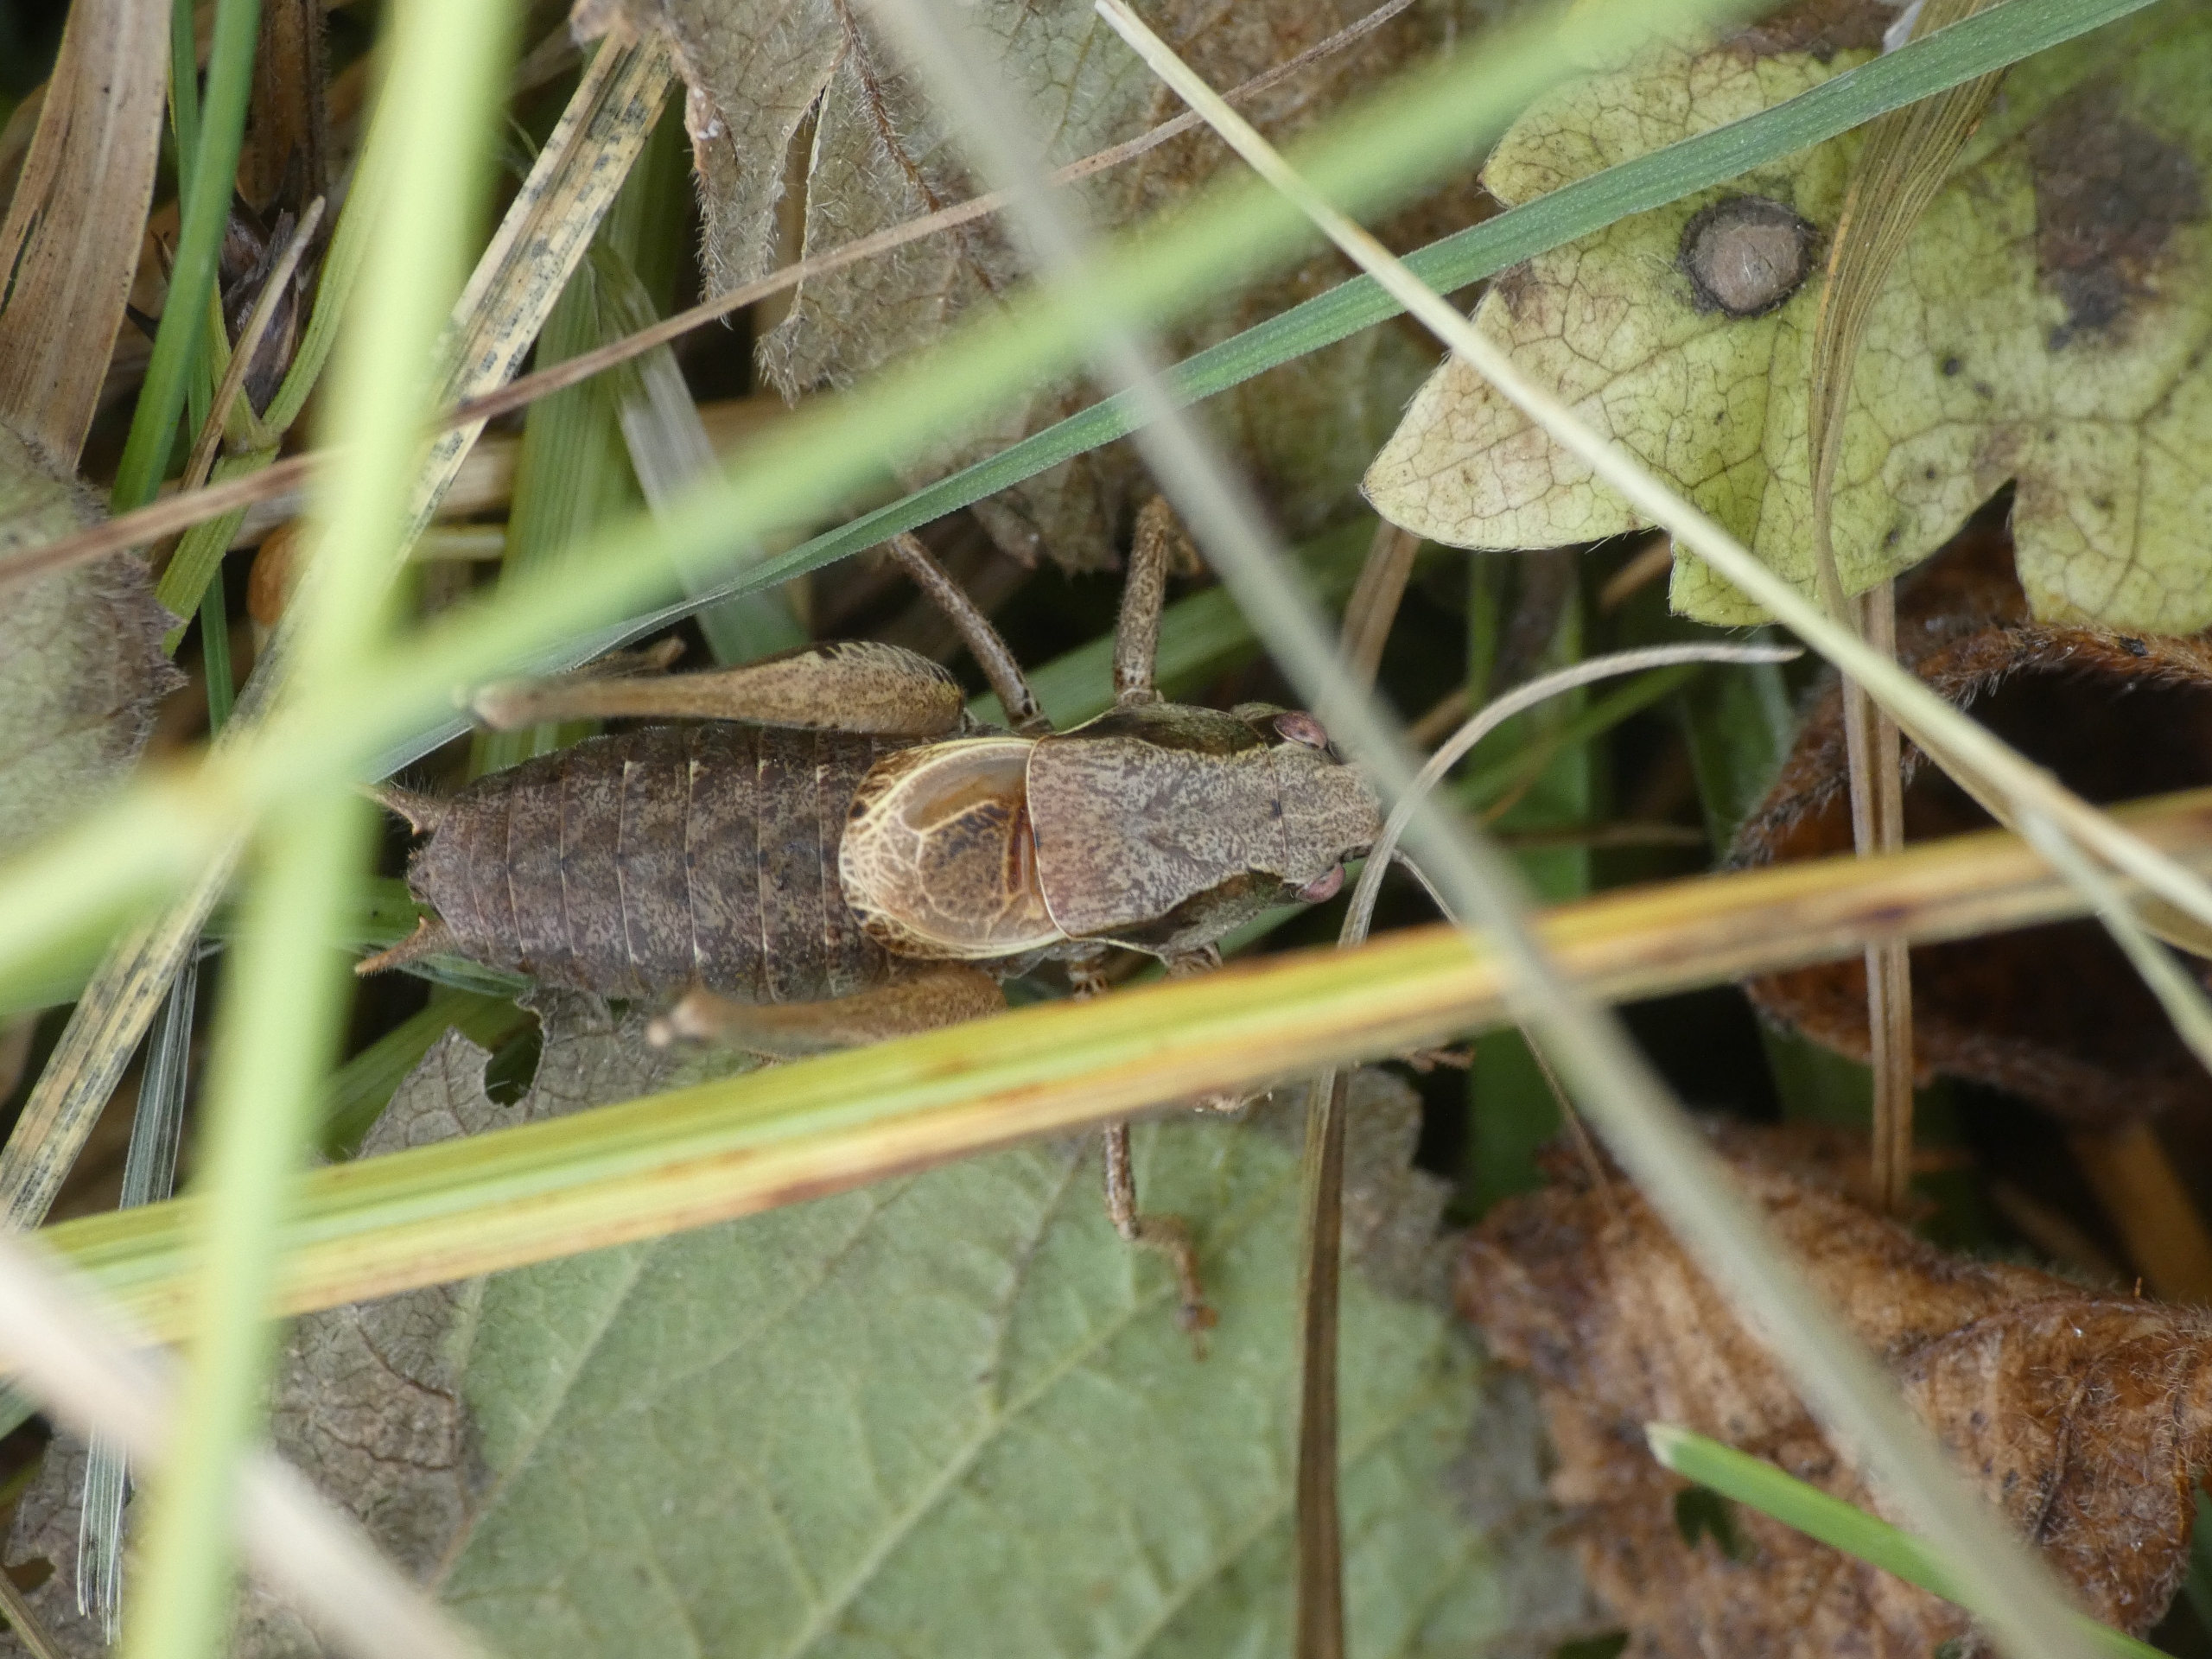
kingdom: Animalia
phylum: Arthropoda
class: Insecta
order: Orthoptera
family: Tettigoniidae
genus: Pholidoptera
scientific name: Pholidoptera griseoaptera
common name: Buskgræshoppe
